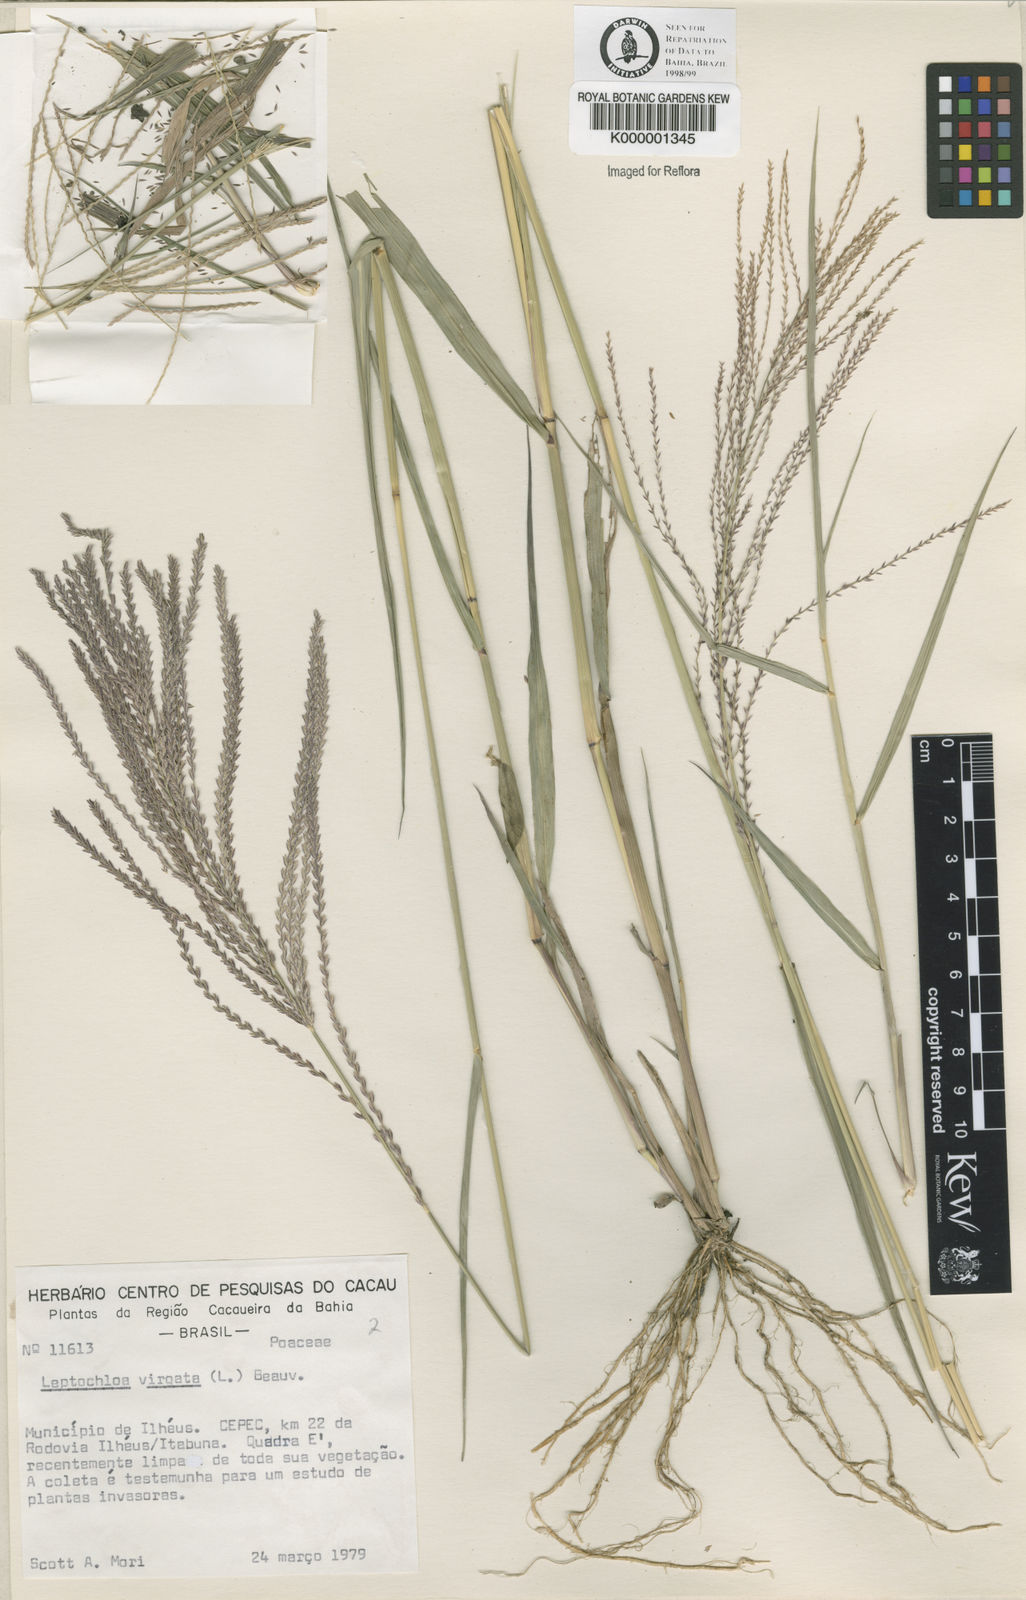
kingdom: Plantae
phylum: Tracheophyta
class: Liliopsida
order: Poales
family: Poaceae
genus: Leptochloa
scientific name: Leptochloa virgata
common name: Tropical sprangletop
